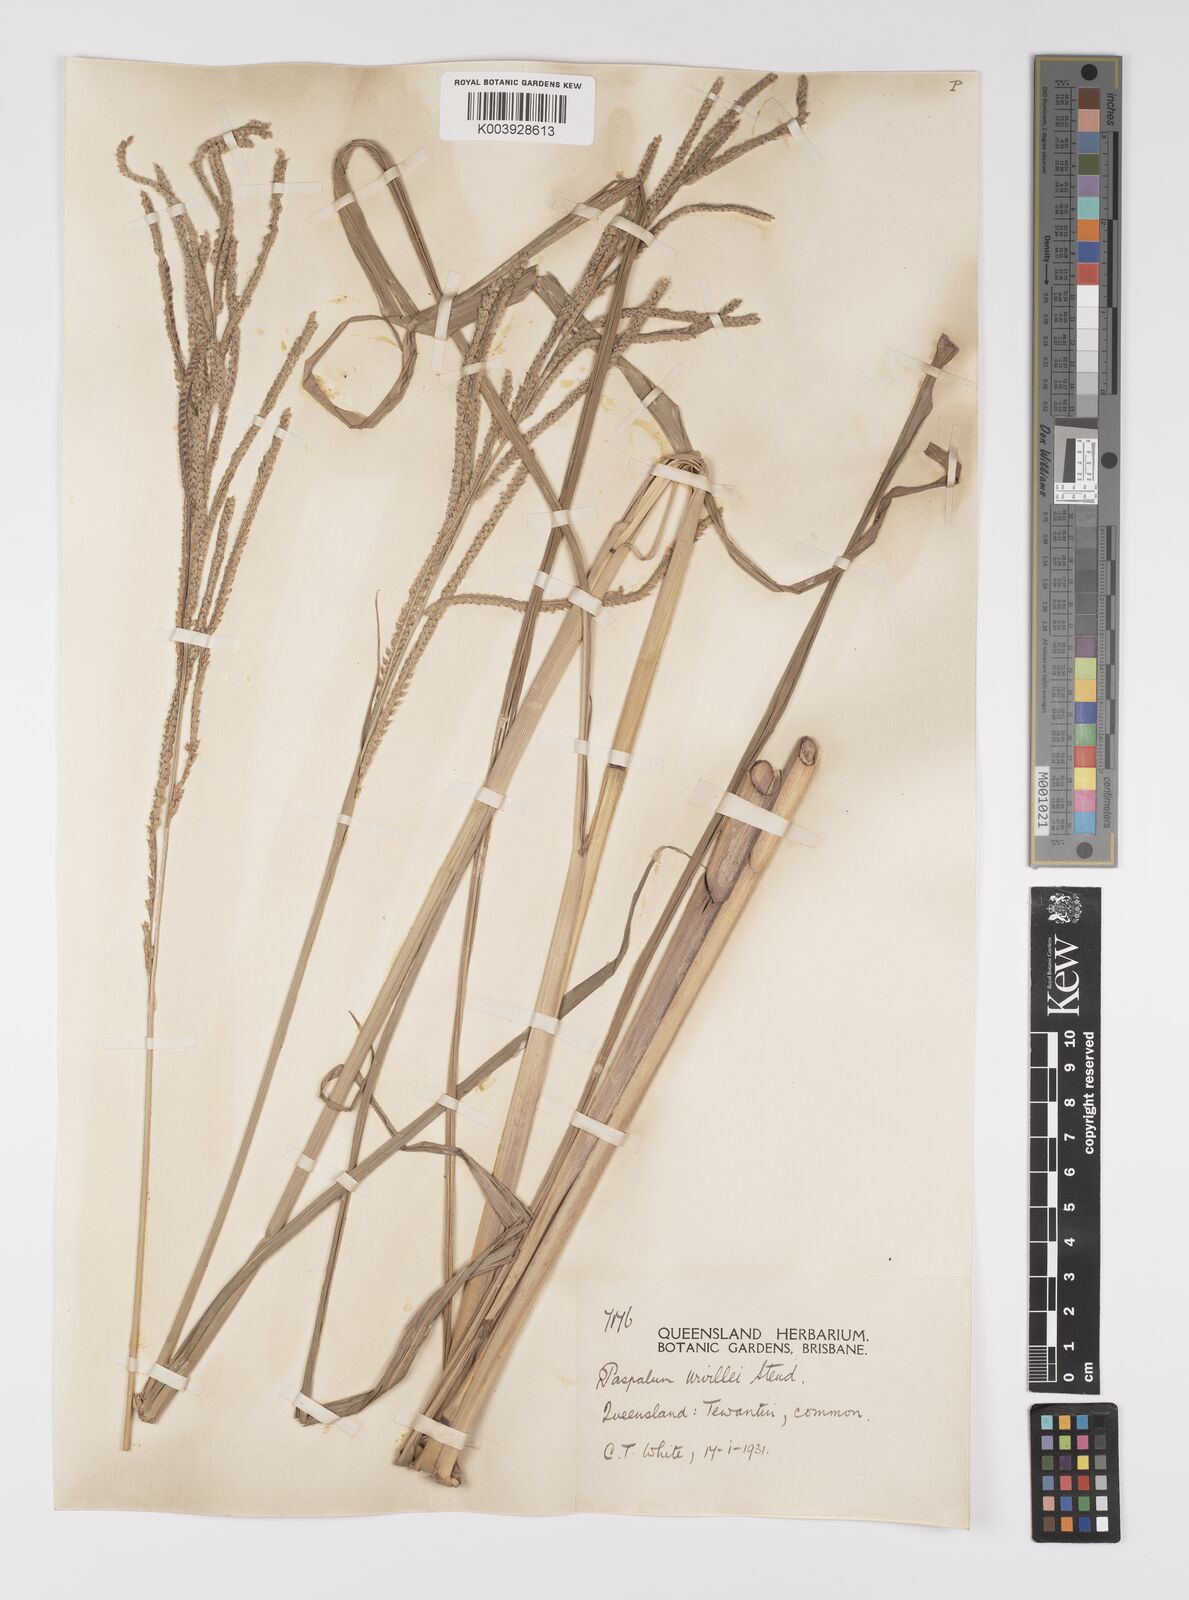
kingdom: Plantae
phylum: Tracheophyta
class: Liliopsida
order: Poales
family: Poaceae
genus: Paspalum
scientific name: Paspalum urvillei
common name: Vasey's grass
